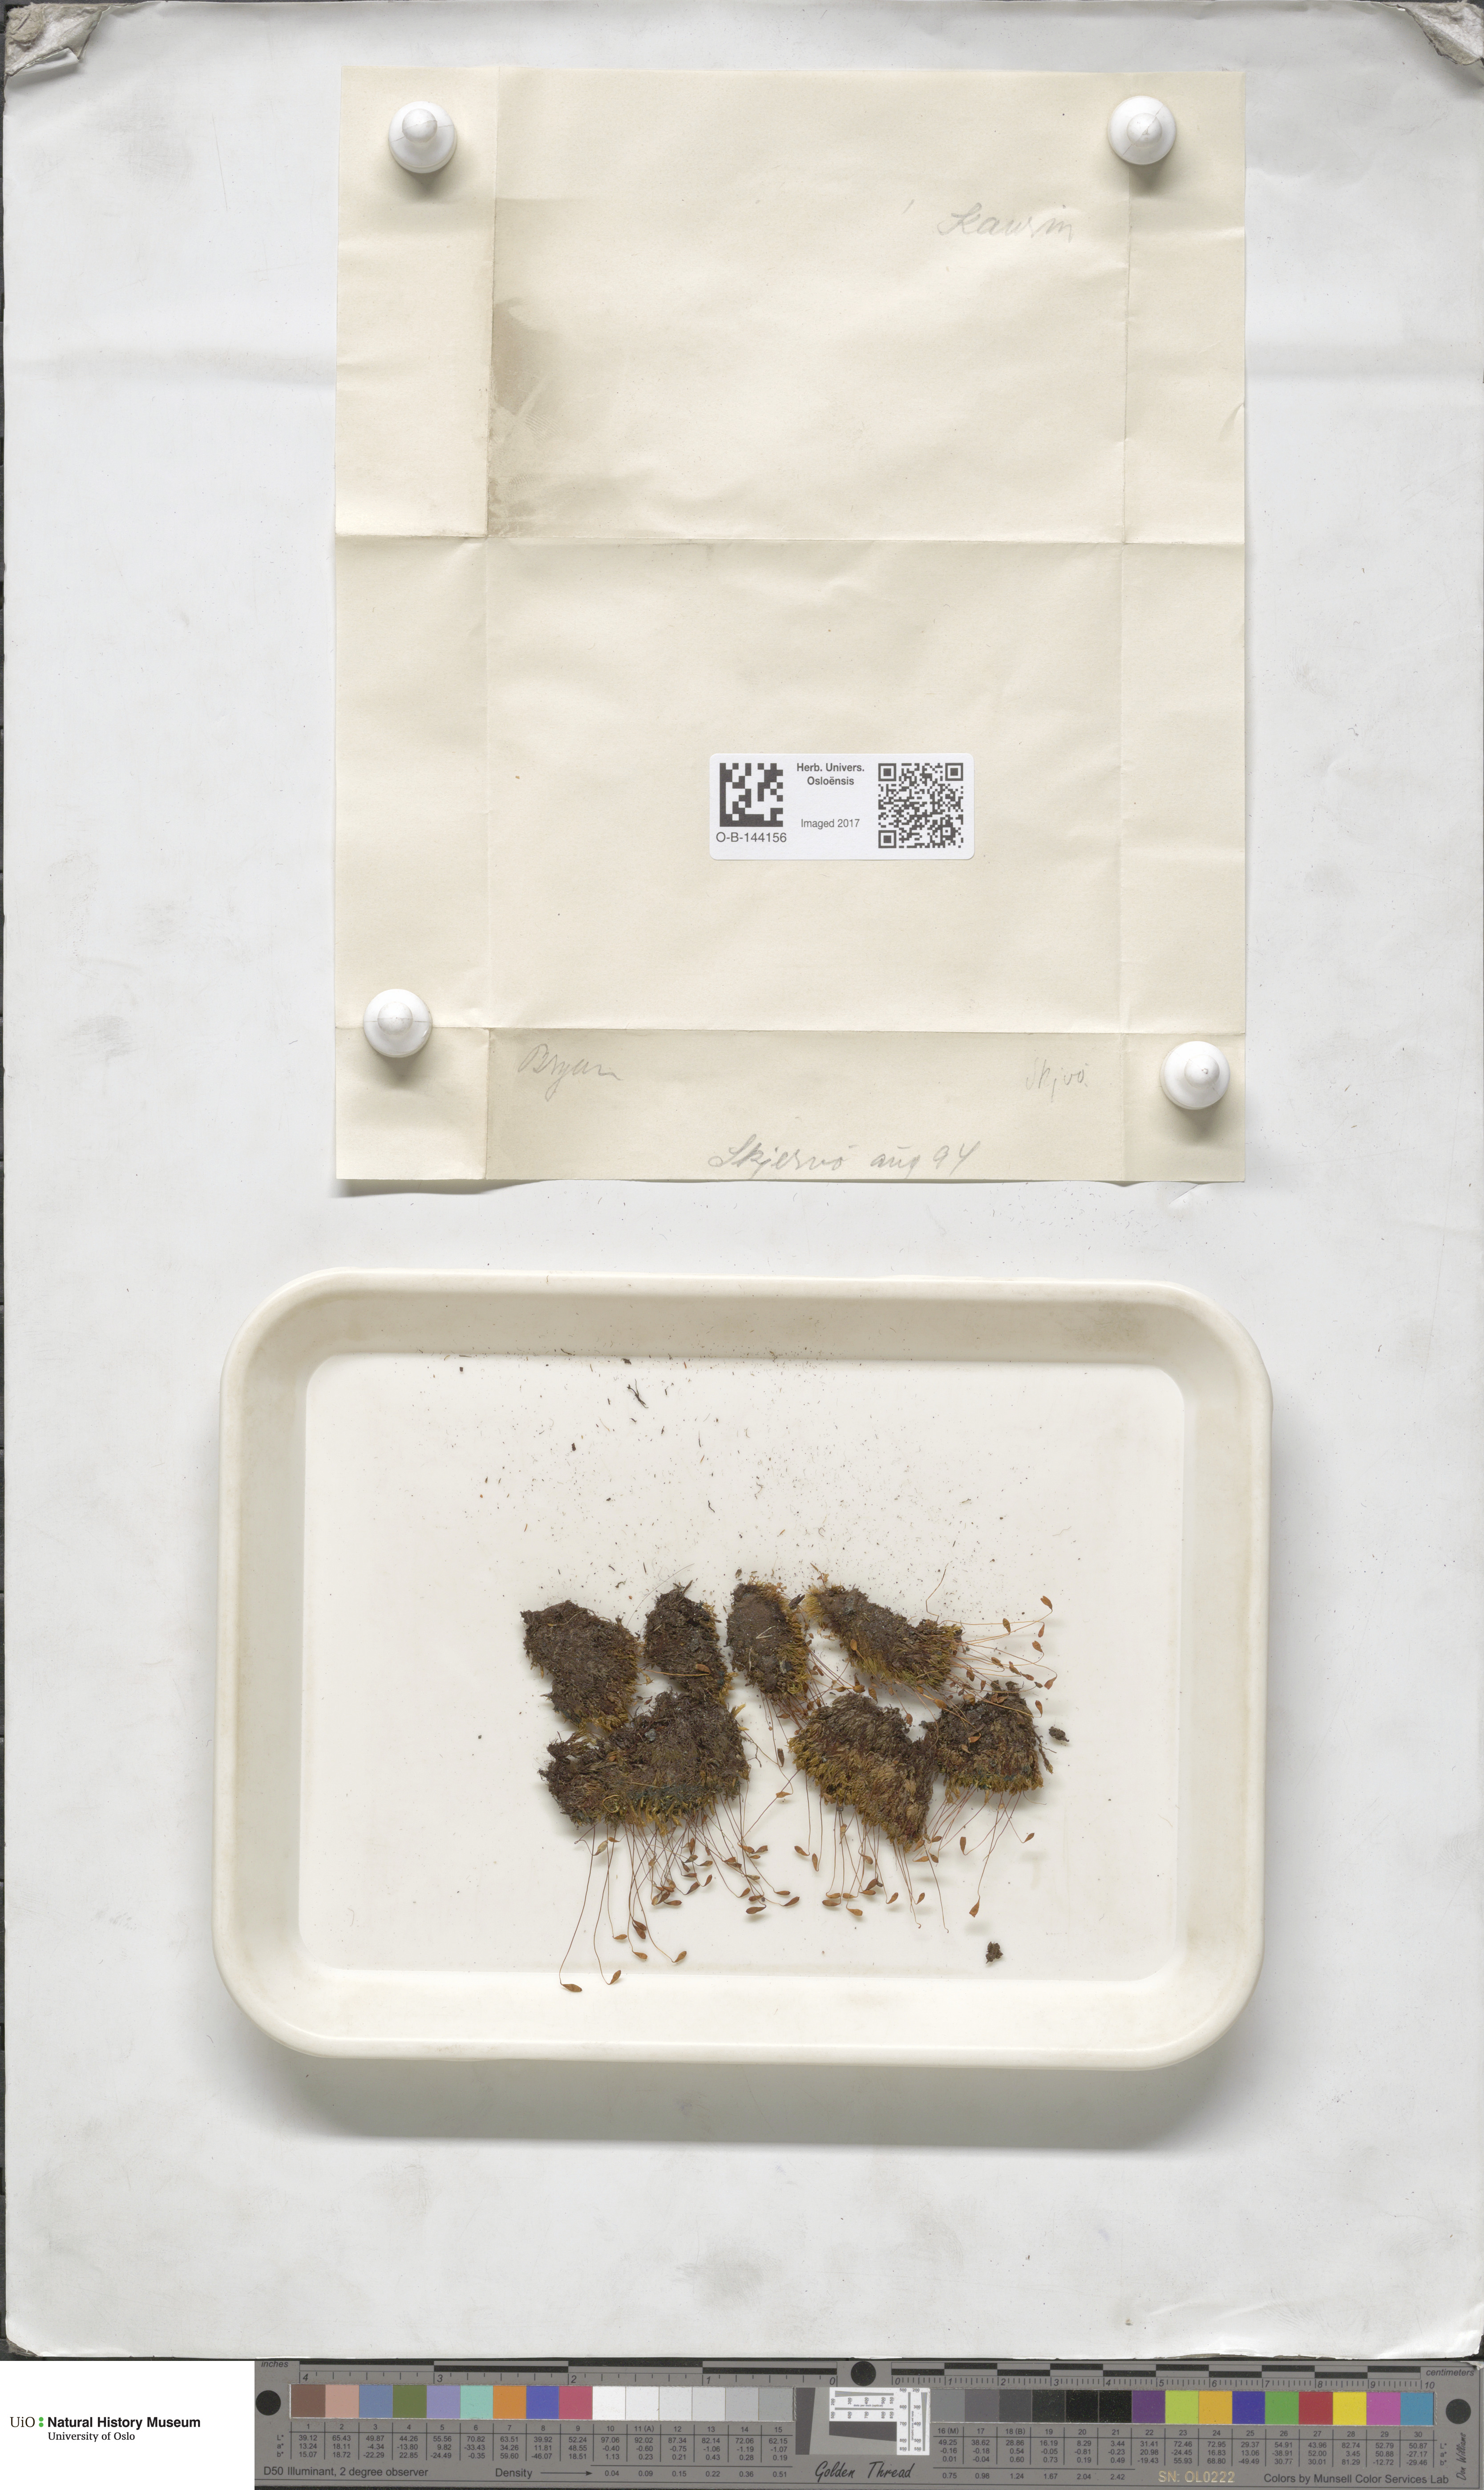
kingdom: Plantae
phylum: Bryophyta
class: Bryopsida
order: Bryales
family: Bryaceae
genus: Bryum
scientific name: Bryum
